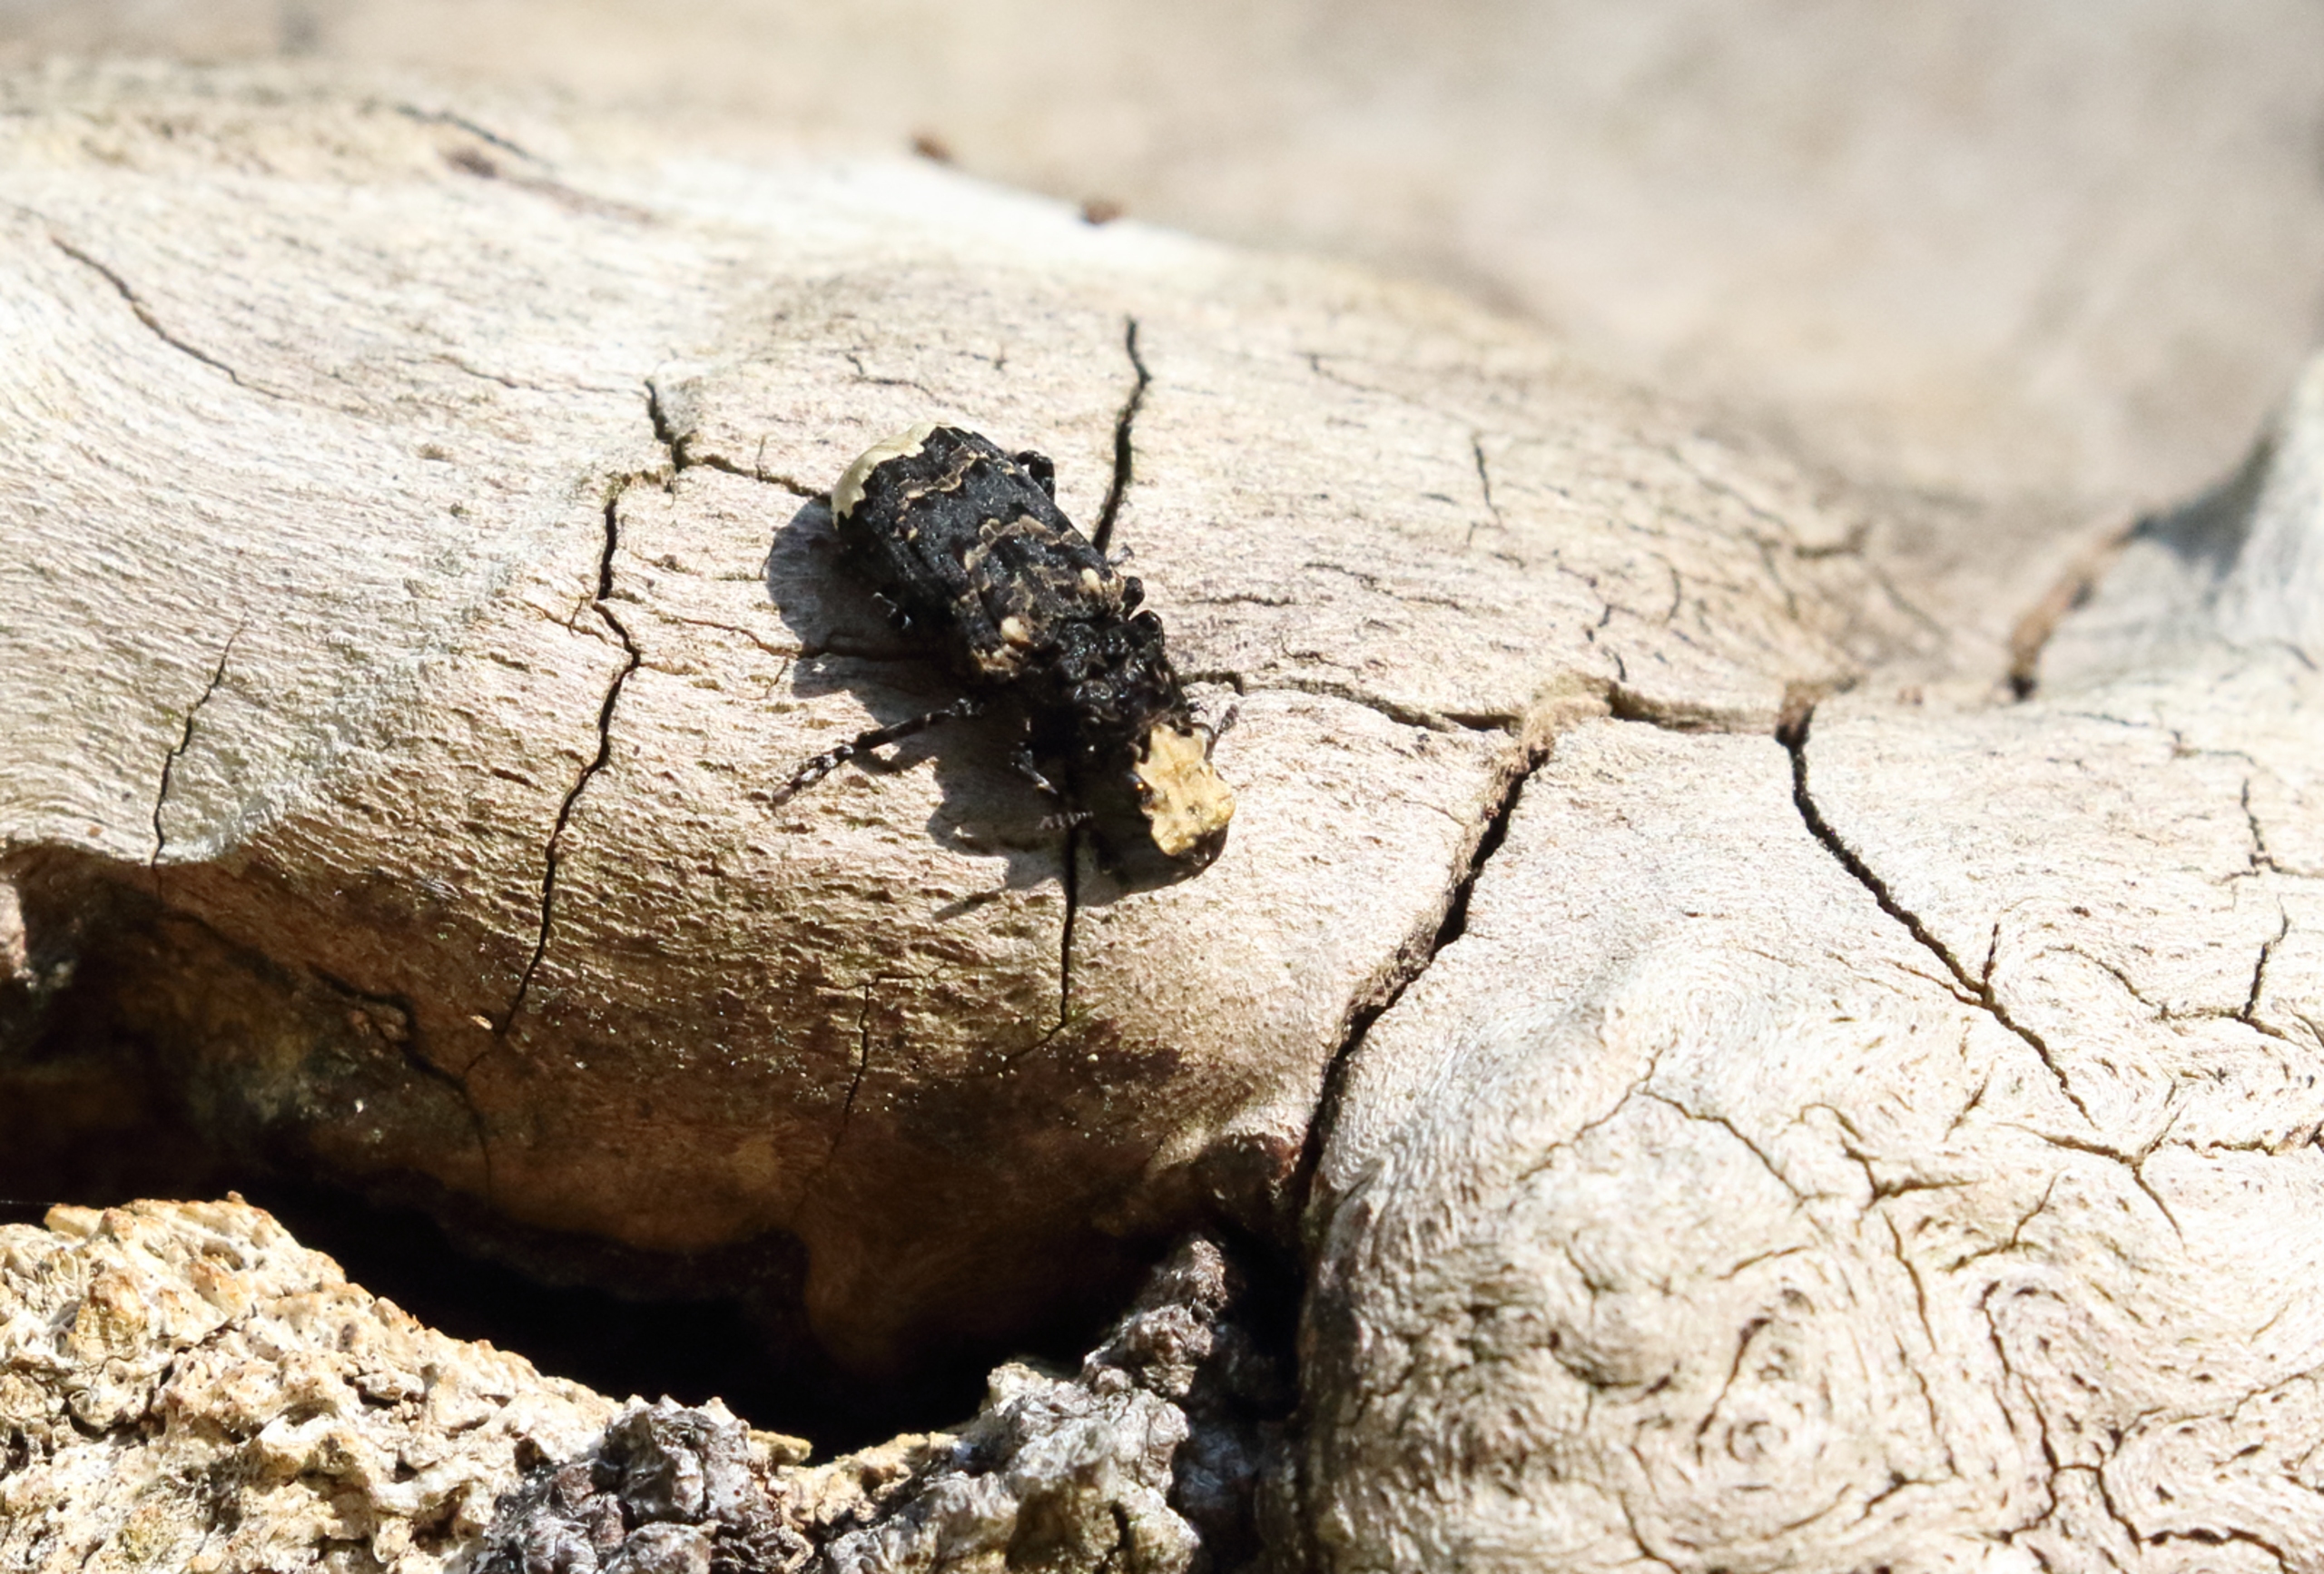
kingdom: Animalia
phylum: Arthropoda
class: Insecta
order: Coleoptera
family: Anthribidae
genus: Platyrhinus
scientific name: Platyrhinus resinosus
